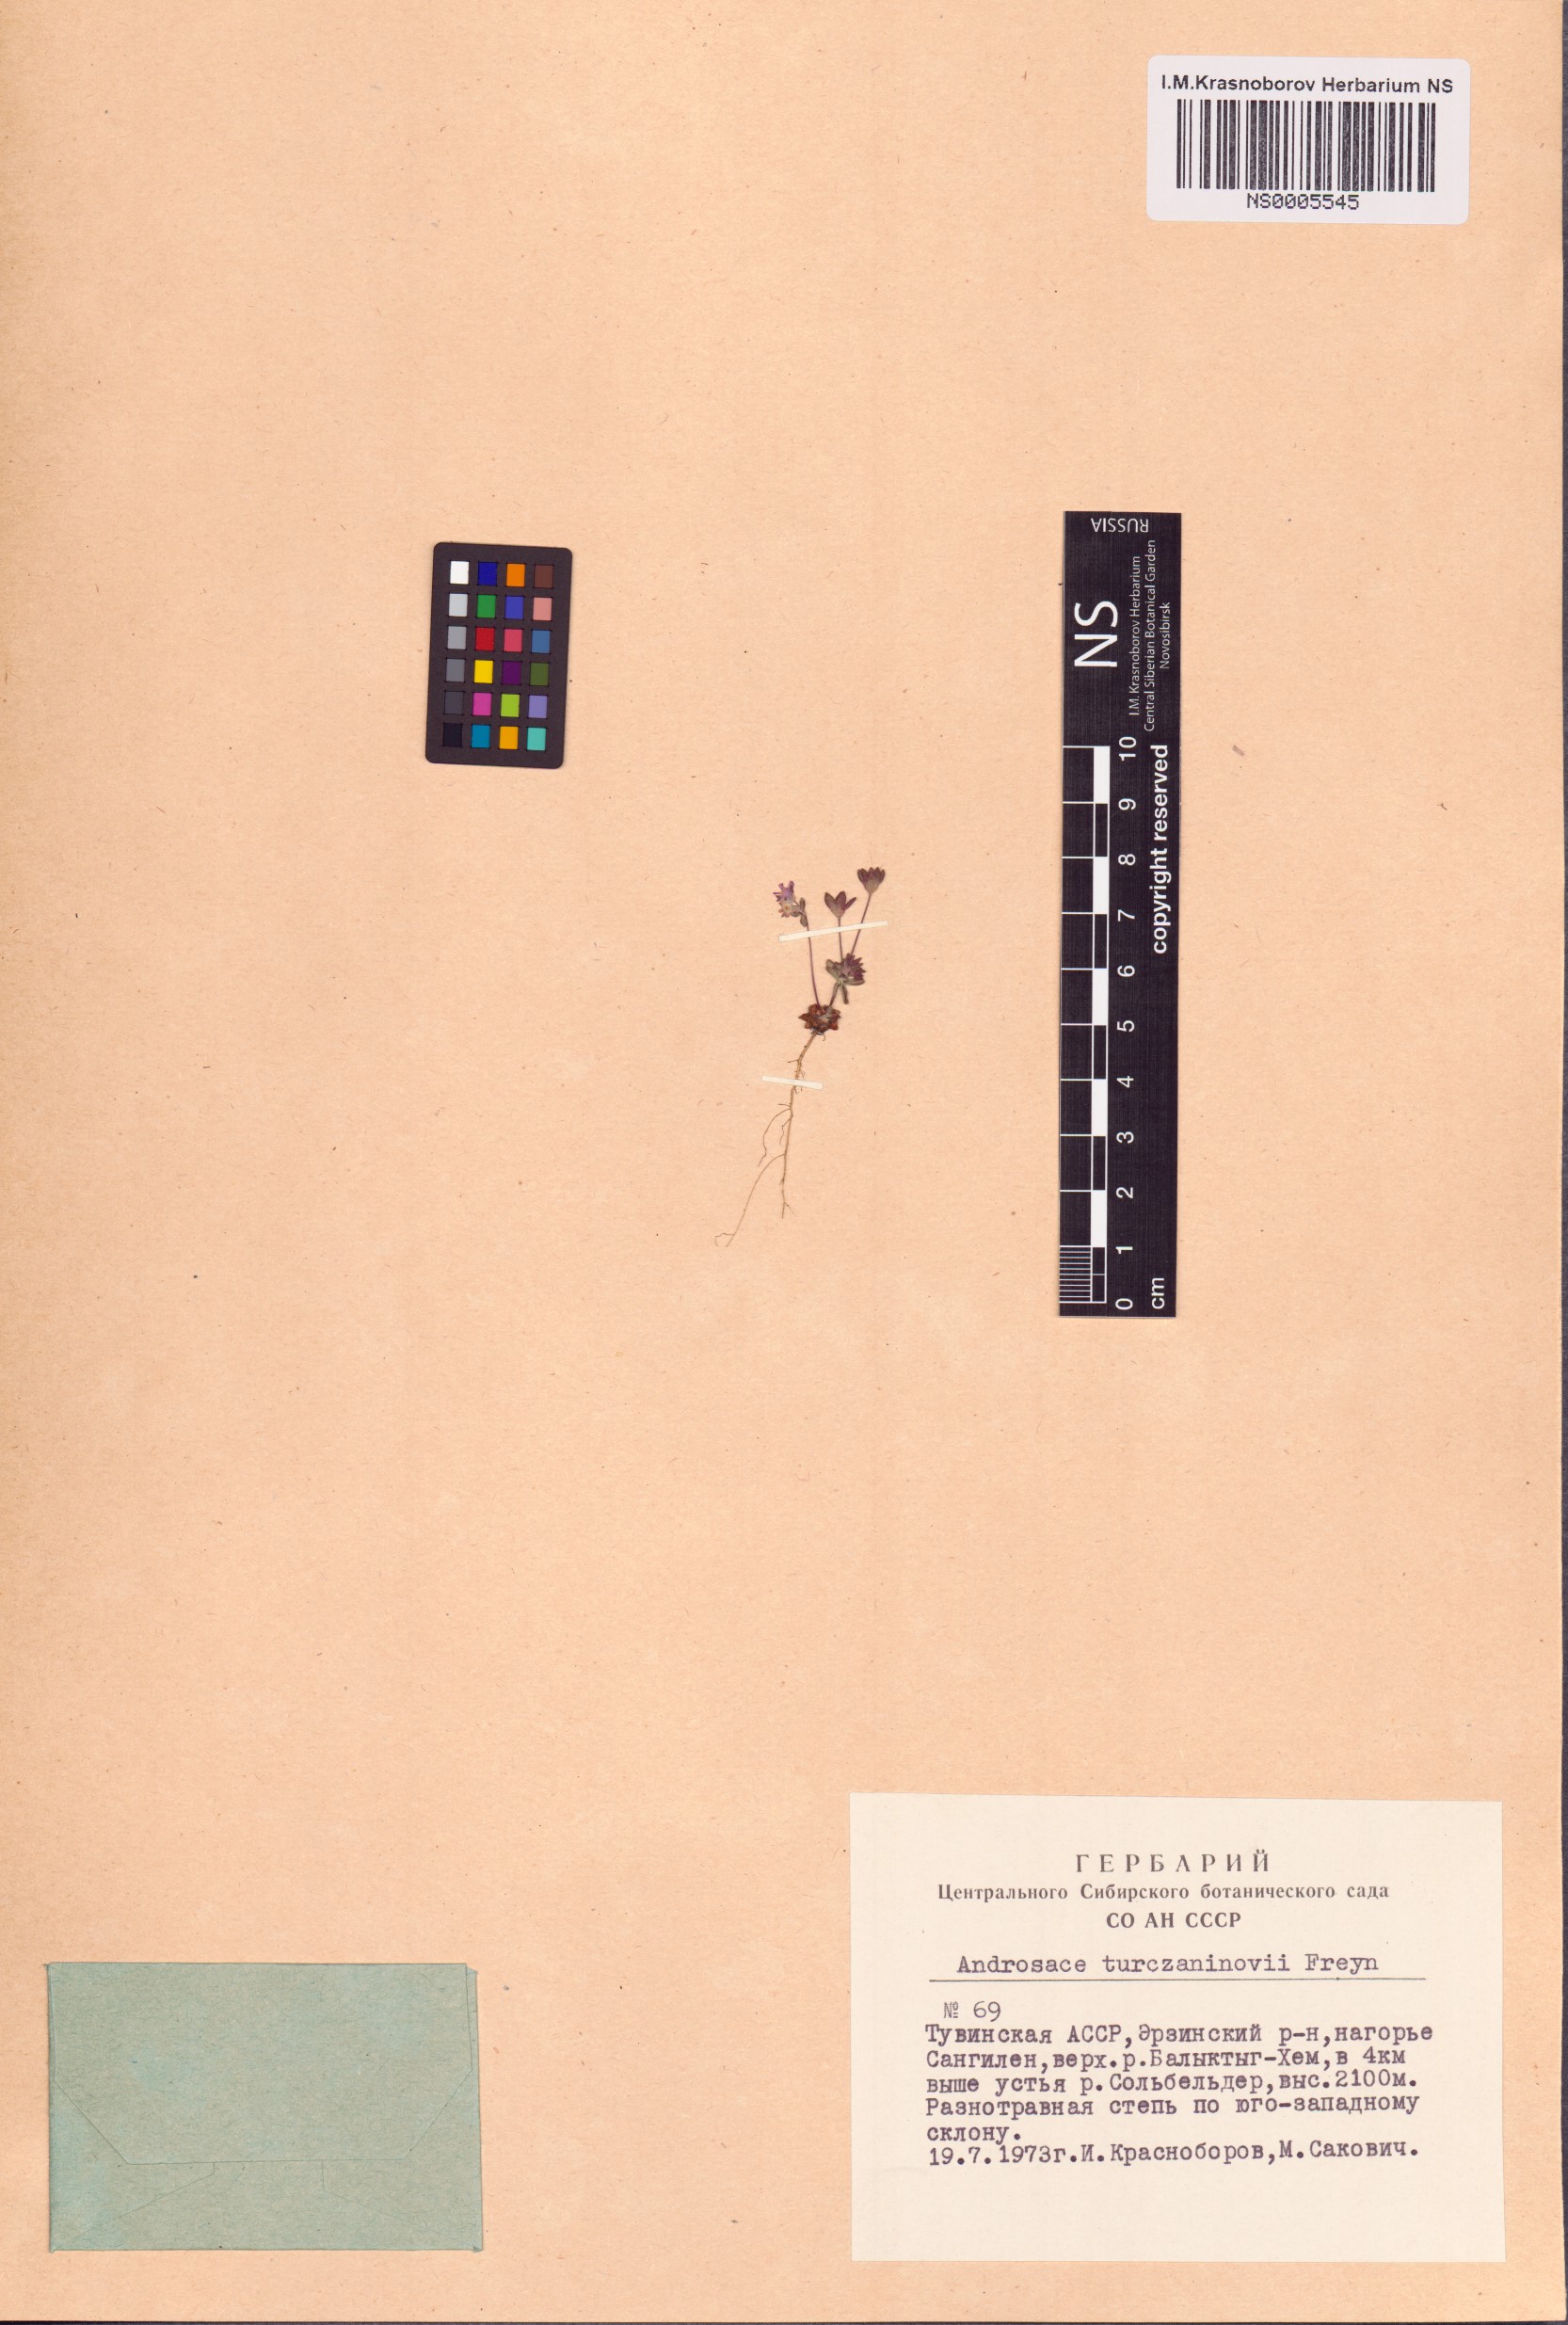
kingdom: Plantae
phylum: Tracheophyta
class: Magnoliopsida
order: Ericales
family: Primulaceae
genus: Androsace
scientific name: Androsace maxima
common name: Annual androsace
